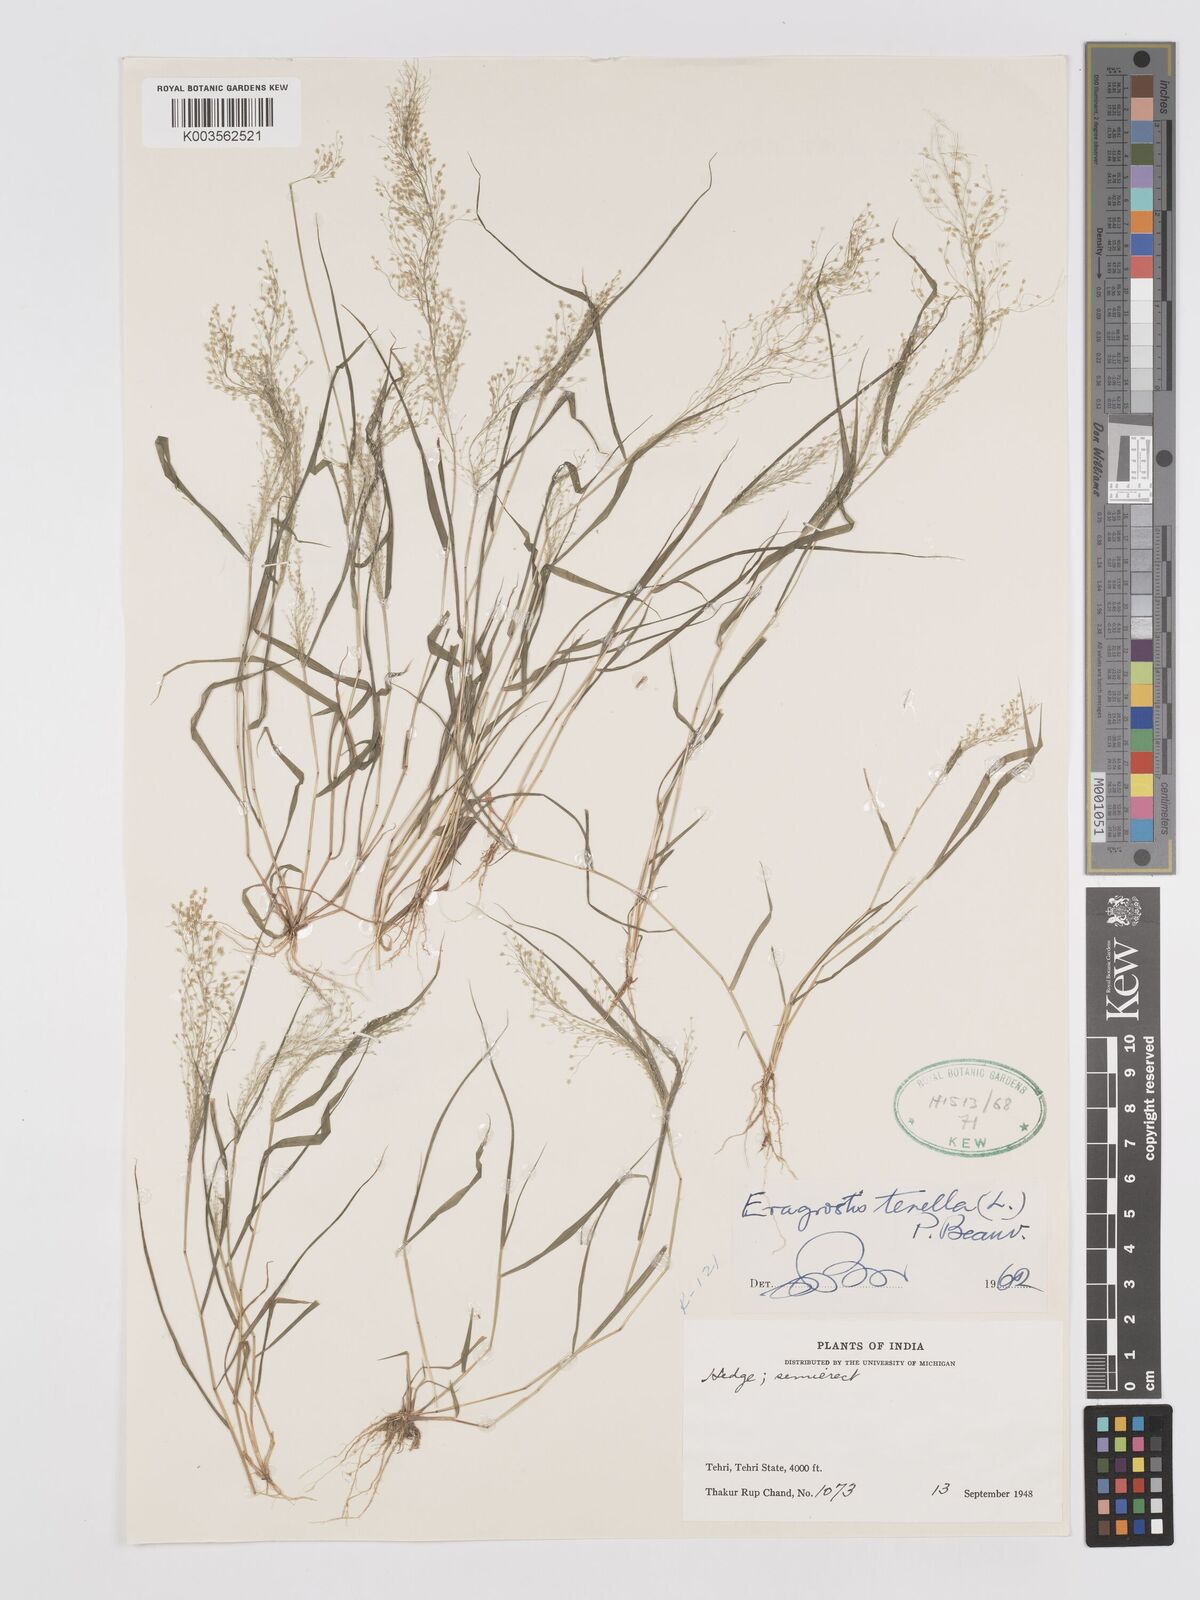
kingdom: Plantae
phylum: Tracheophyta
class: Liliopsida
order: Poales
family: Poaceae
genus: Eragrostis
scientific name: Eragrostis tenella
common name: Japanese lovegrass
